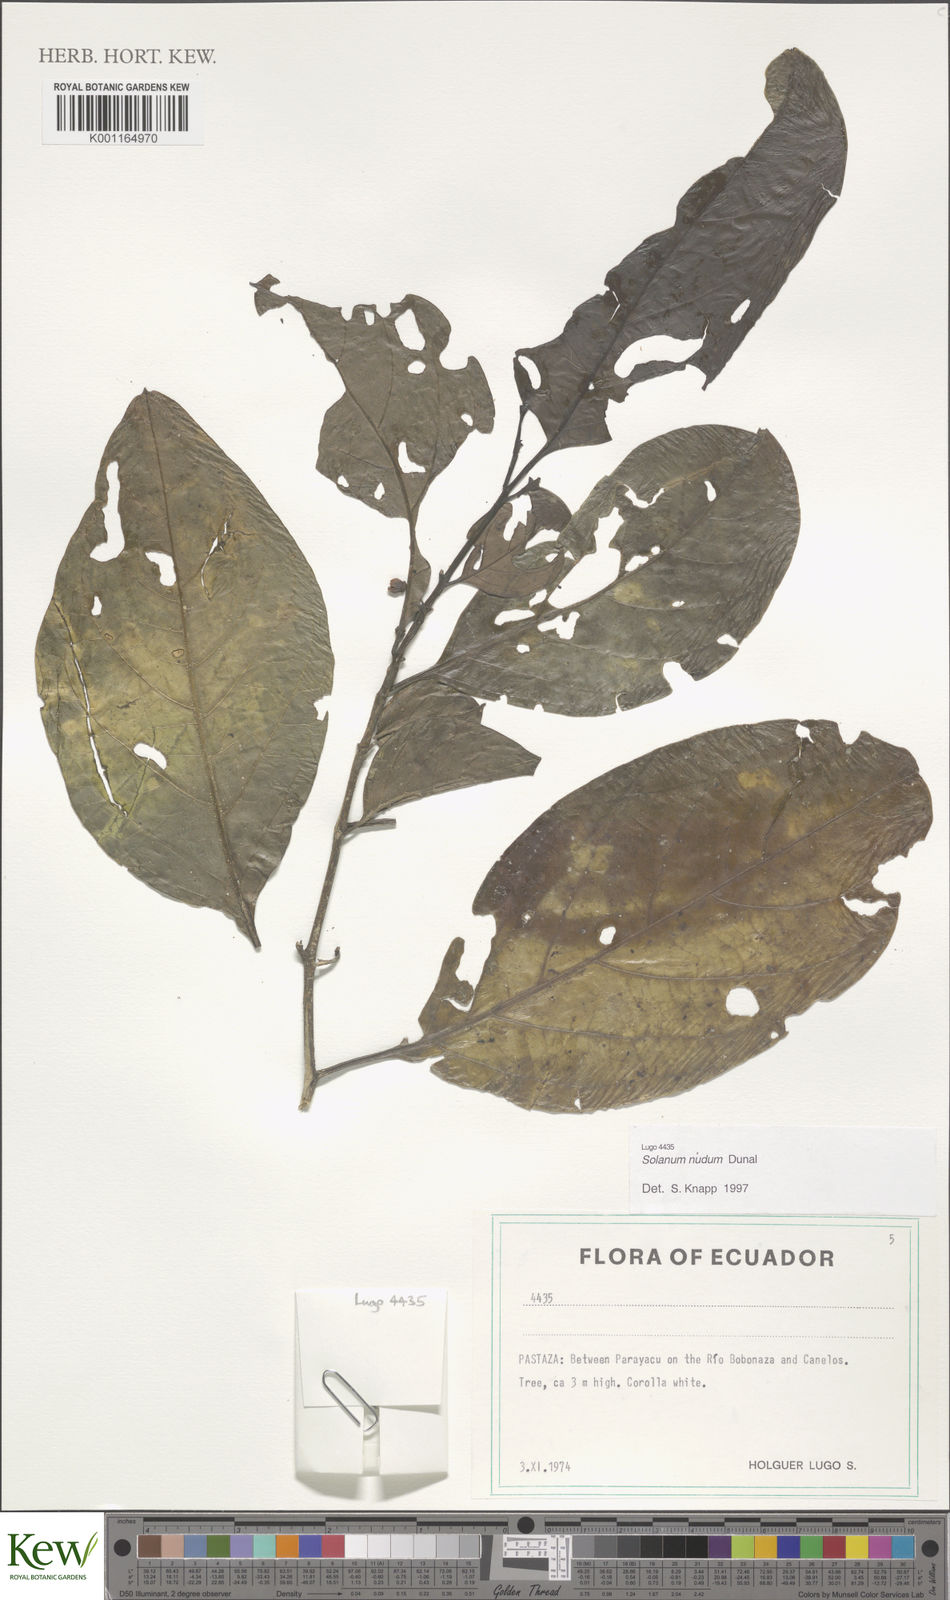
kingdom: Plantae
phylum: Tracheophyta
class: Magnoliopsida
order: Solanales
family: Solanaceae
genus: Solanum
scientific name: Solanum nudum
